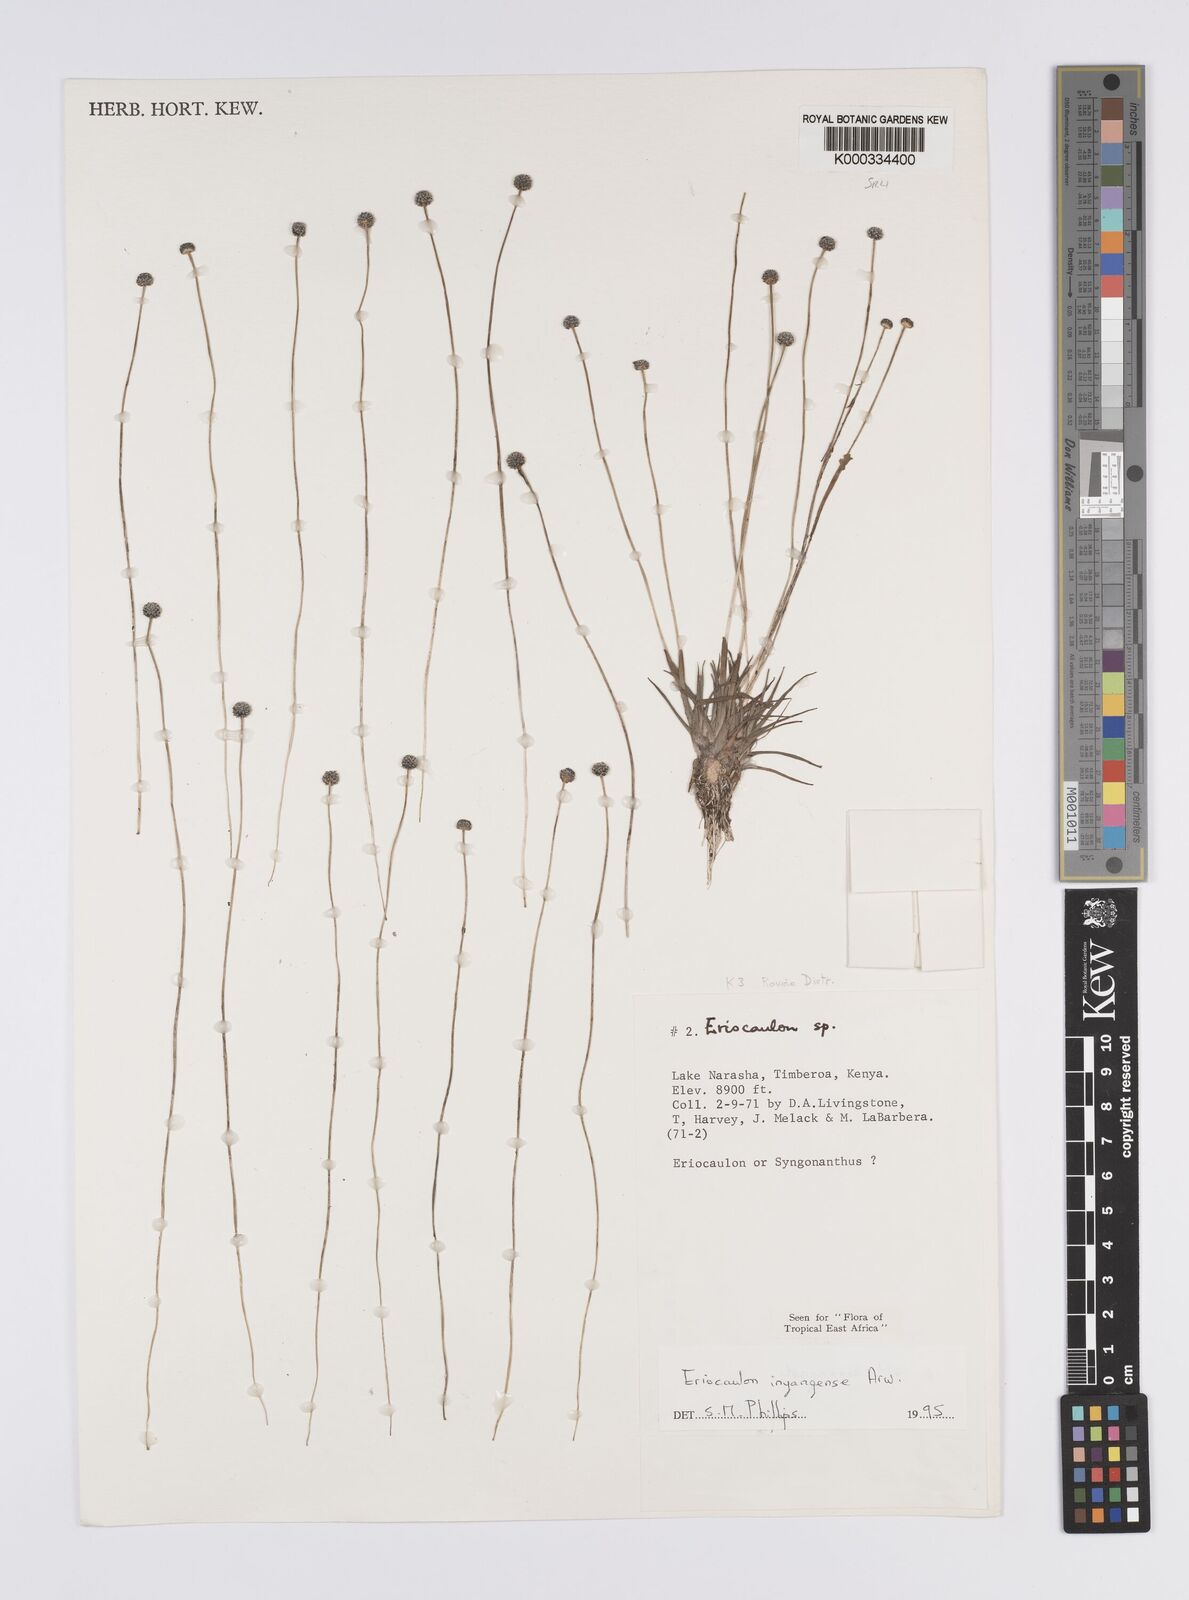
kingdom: Plantae
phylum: Tracheophyta
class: Liliopsida
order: Poales
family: Eriocaulaceae
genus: Eriocaulon
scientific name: Eriocaulon inyangense
